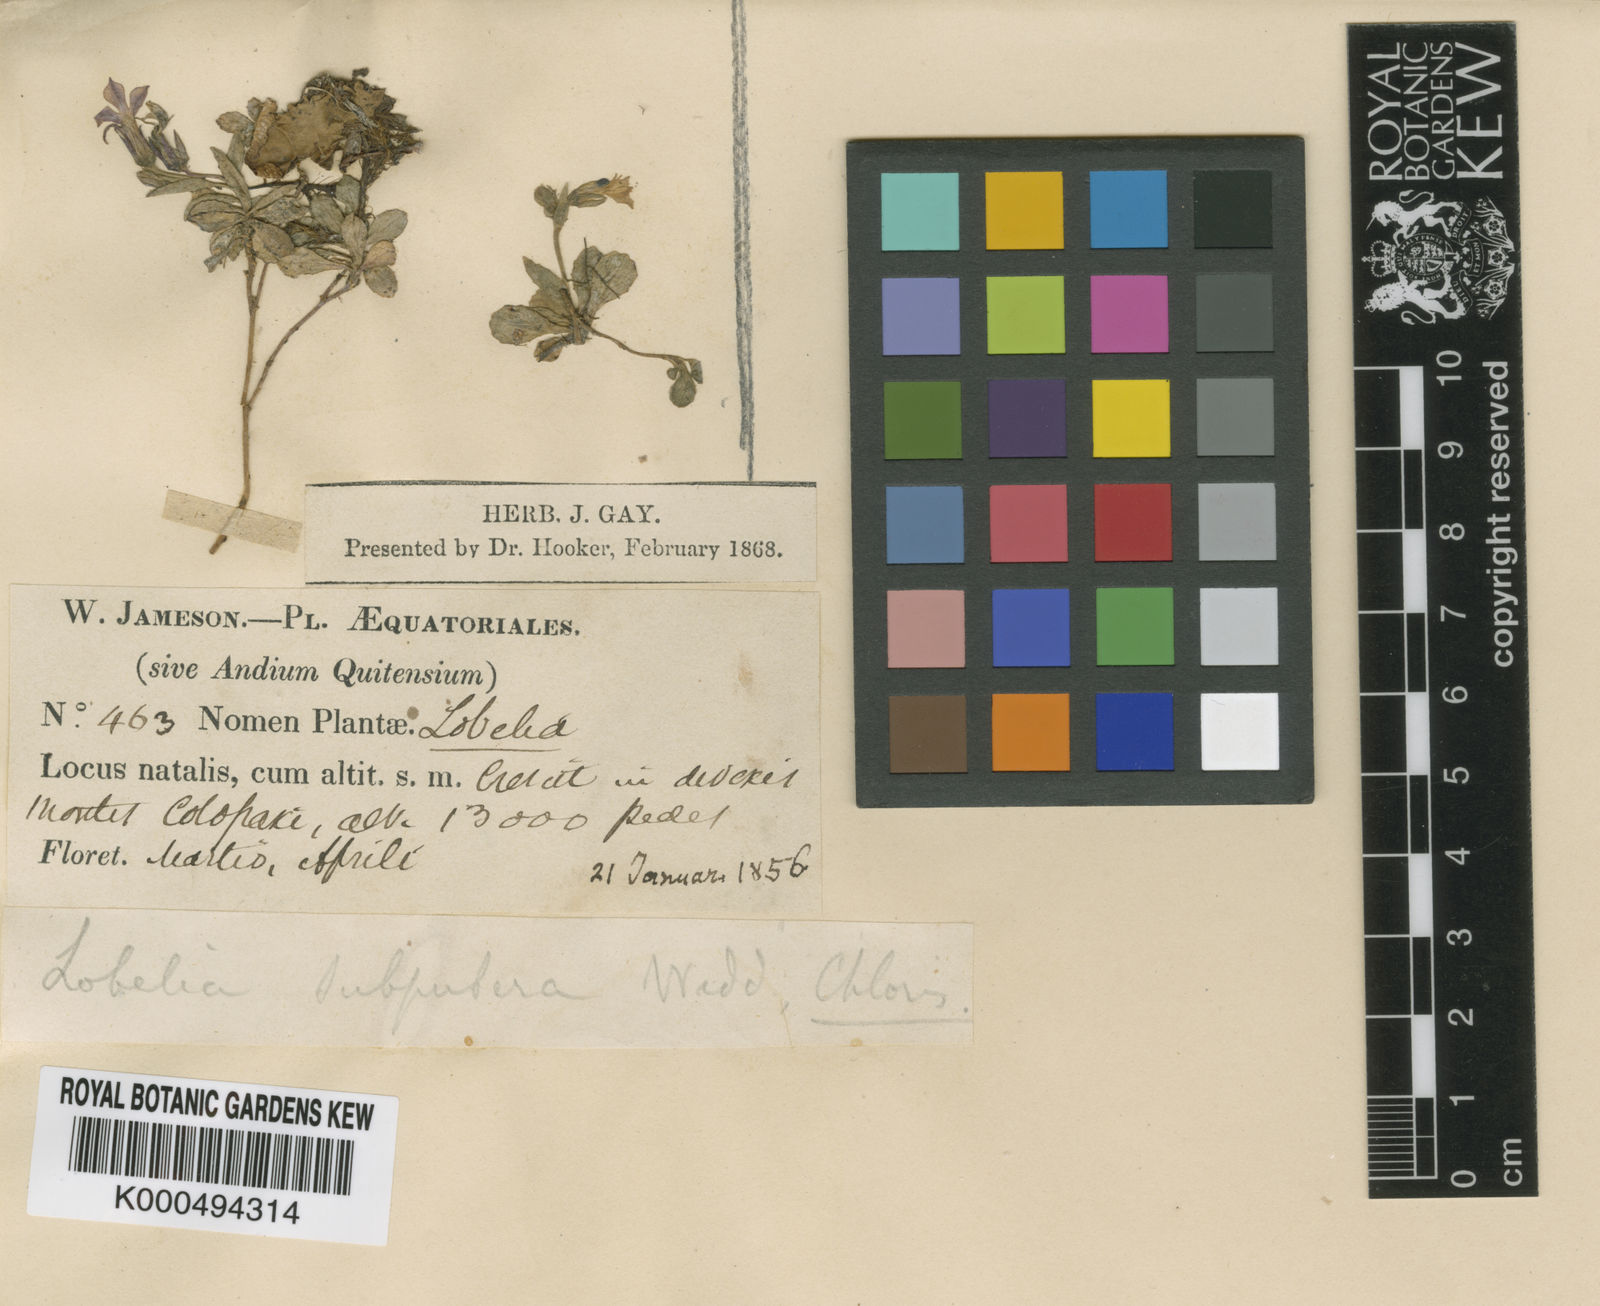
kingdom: Plantae
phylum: Tracheophyta
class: Magnoliopsida
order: Asterales
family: Campanulaceae
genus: Lobelia
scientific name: Lobelia subpubera
